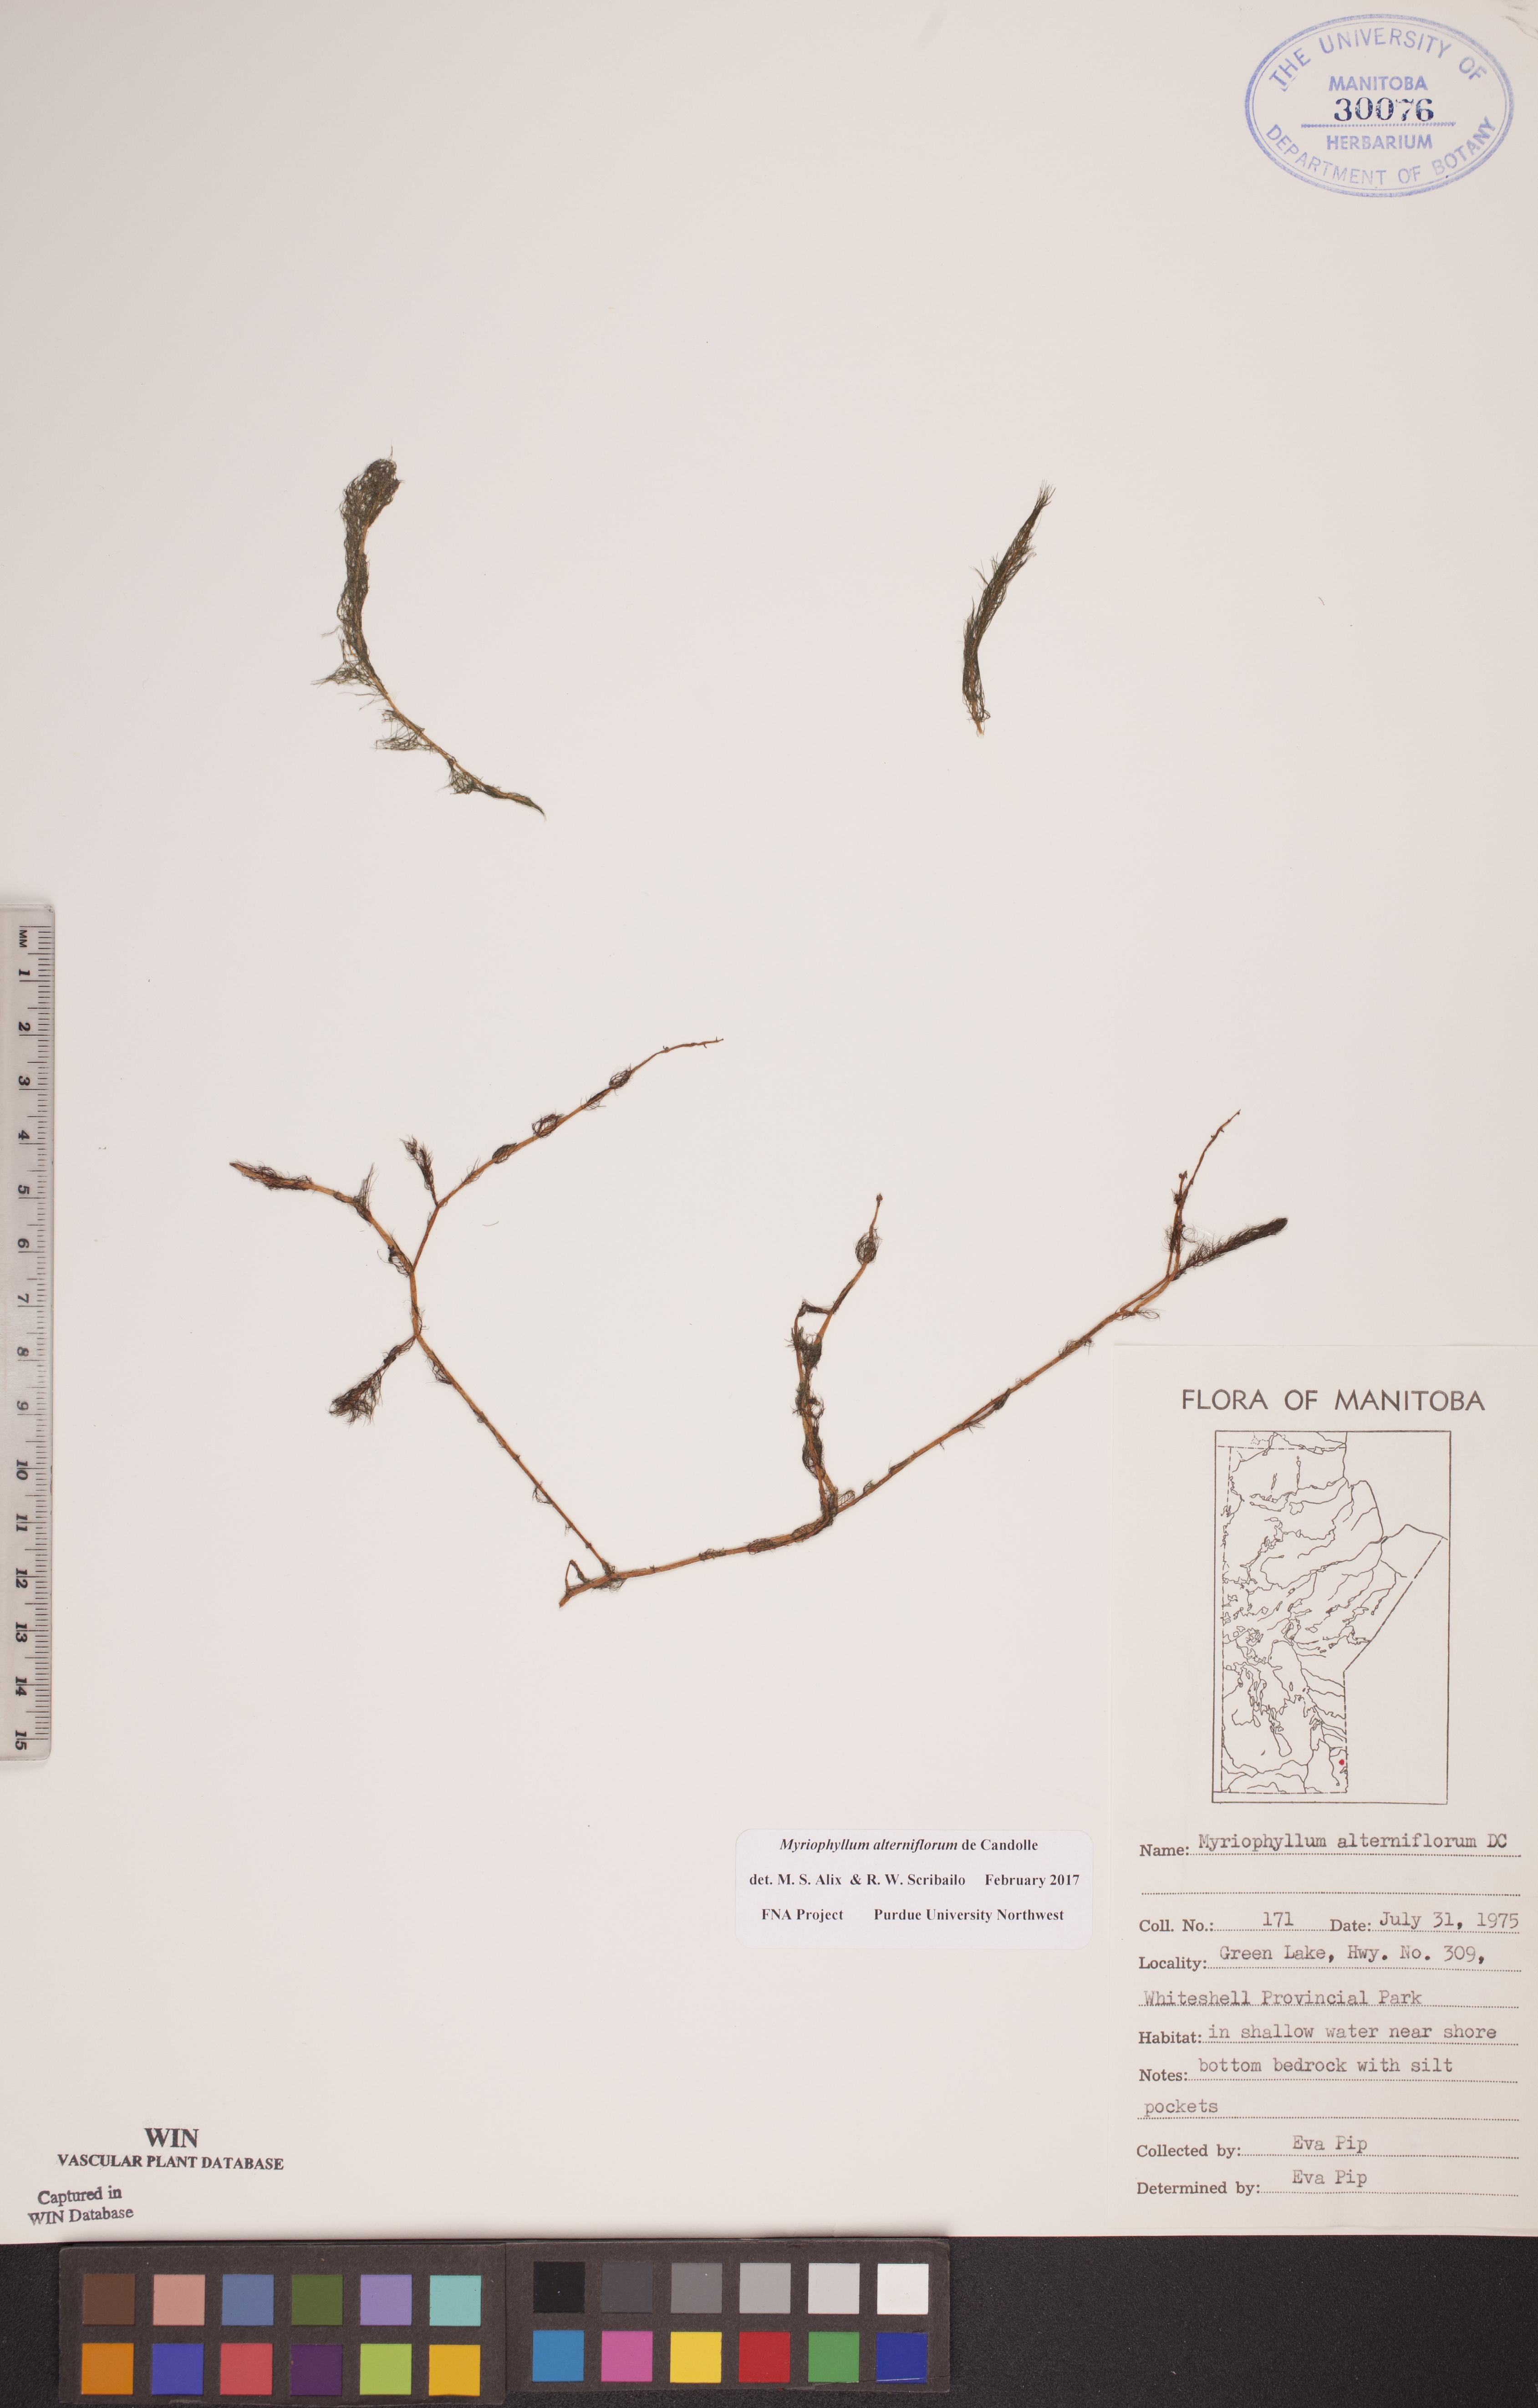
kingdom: Plantae
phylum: Tracheophyta
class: Magnoliopsida
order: Saxifragales
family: Haloragaceae
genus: Myriophyllum
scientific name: Myriophyllum alterniflorum
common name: Alternate water-milfoil
